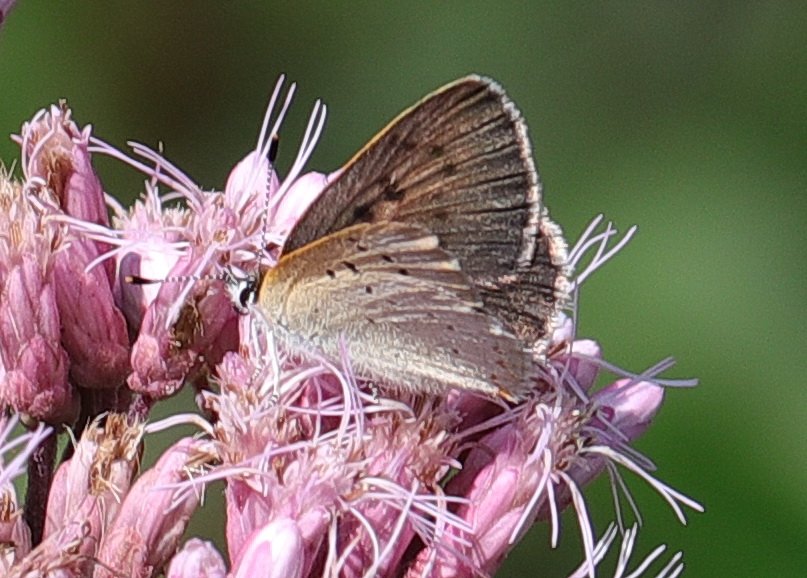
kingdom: Animalia
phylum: Arthropoda
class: Insecta
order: Lepidoptera
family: Sesiidae
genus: Sesia
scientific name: Sesia Lycaena epixanthe
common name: Bog Copper
